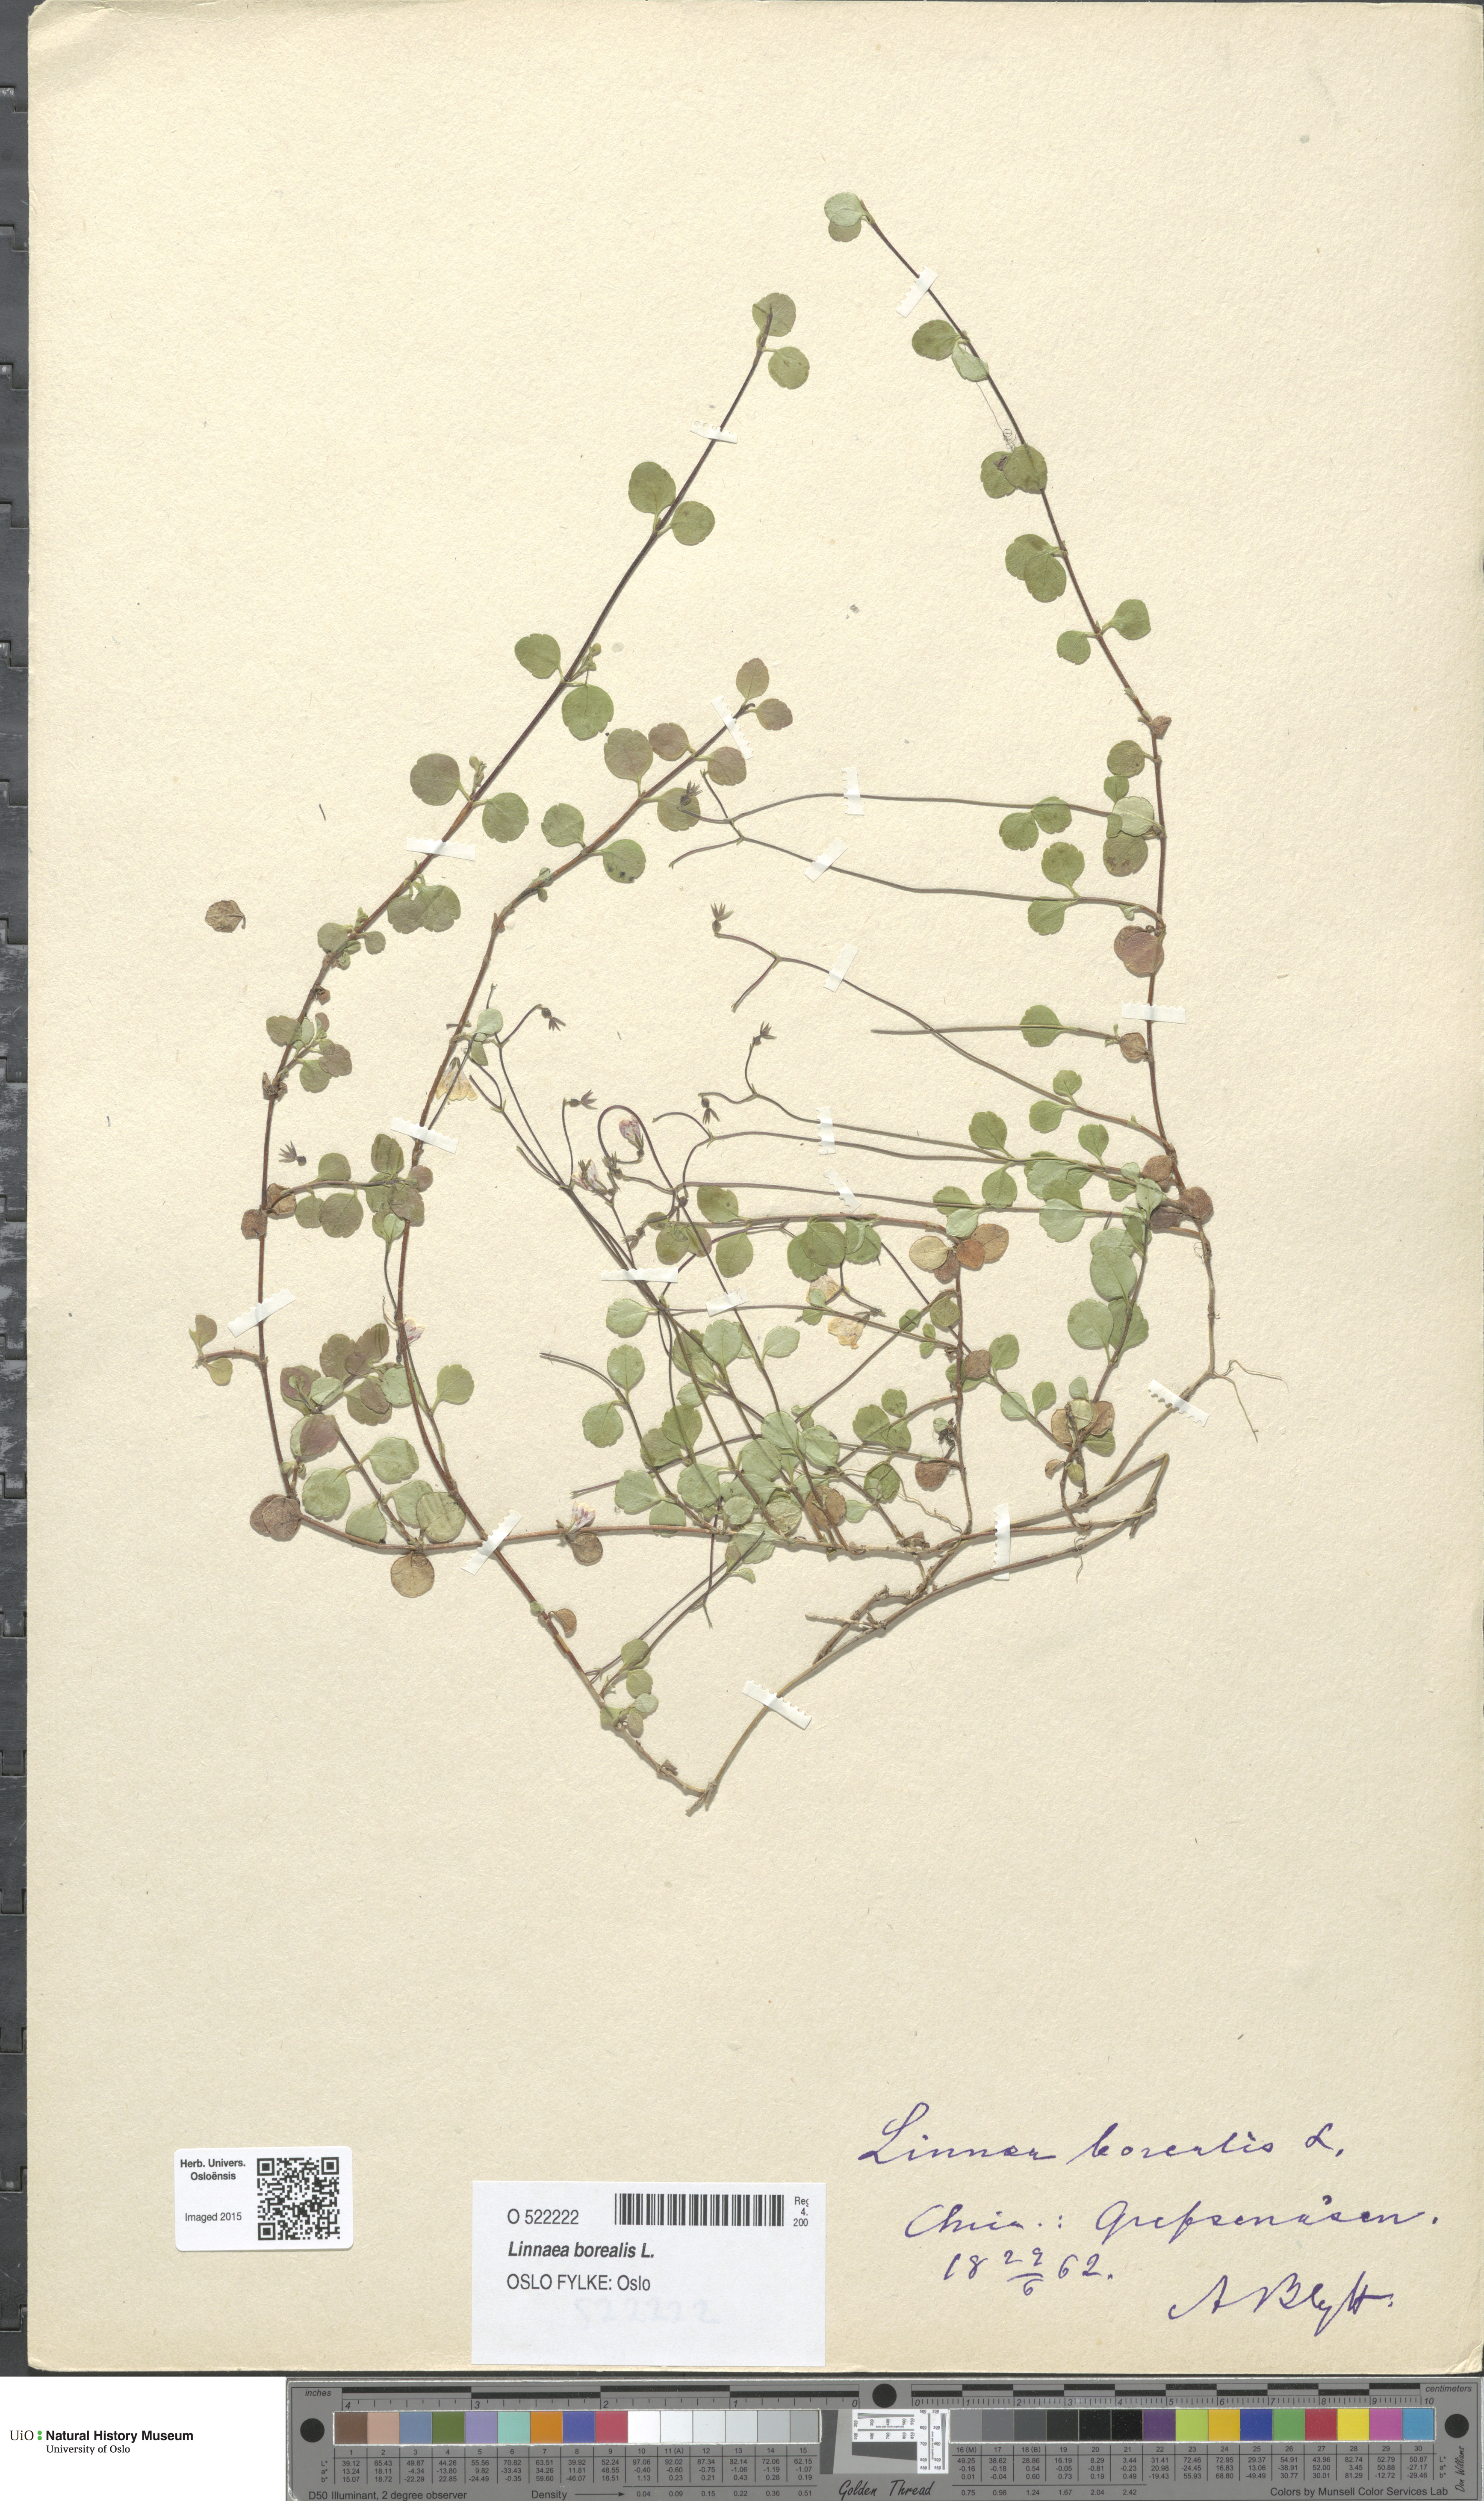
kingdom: Plantae
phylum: Tracheophyta
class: Magnoliopsida
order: Dipsacales
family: Caprifoliaceae
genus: Linnaea
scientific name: Linnaea borealis
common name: Twinflower
